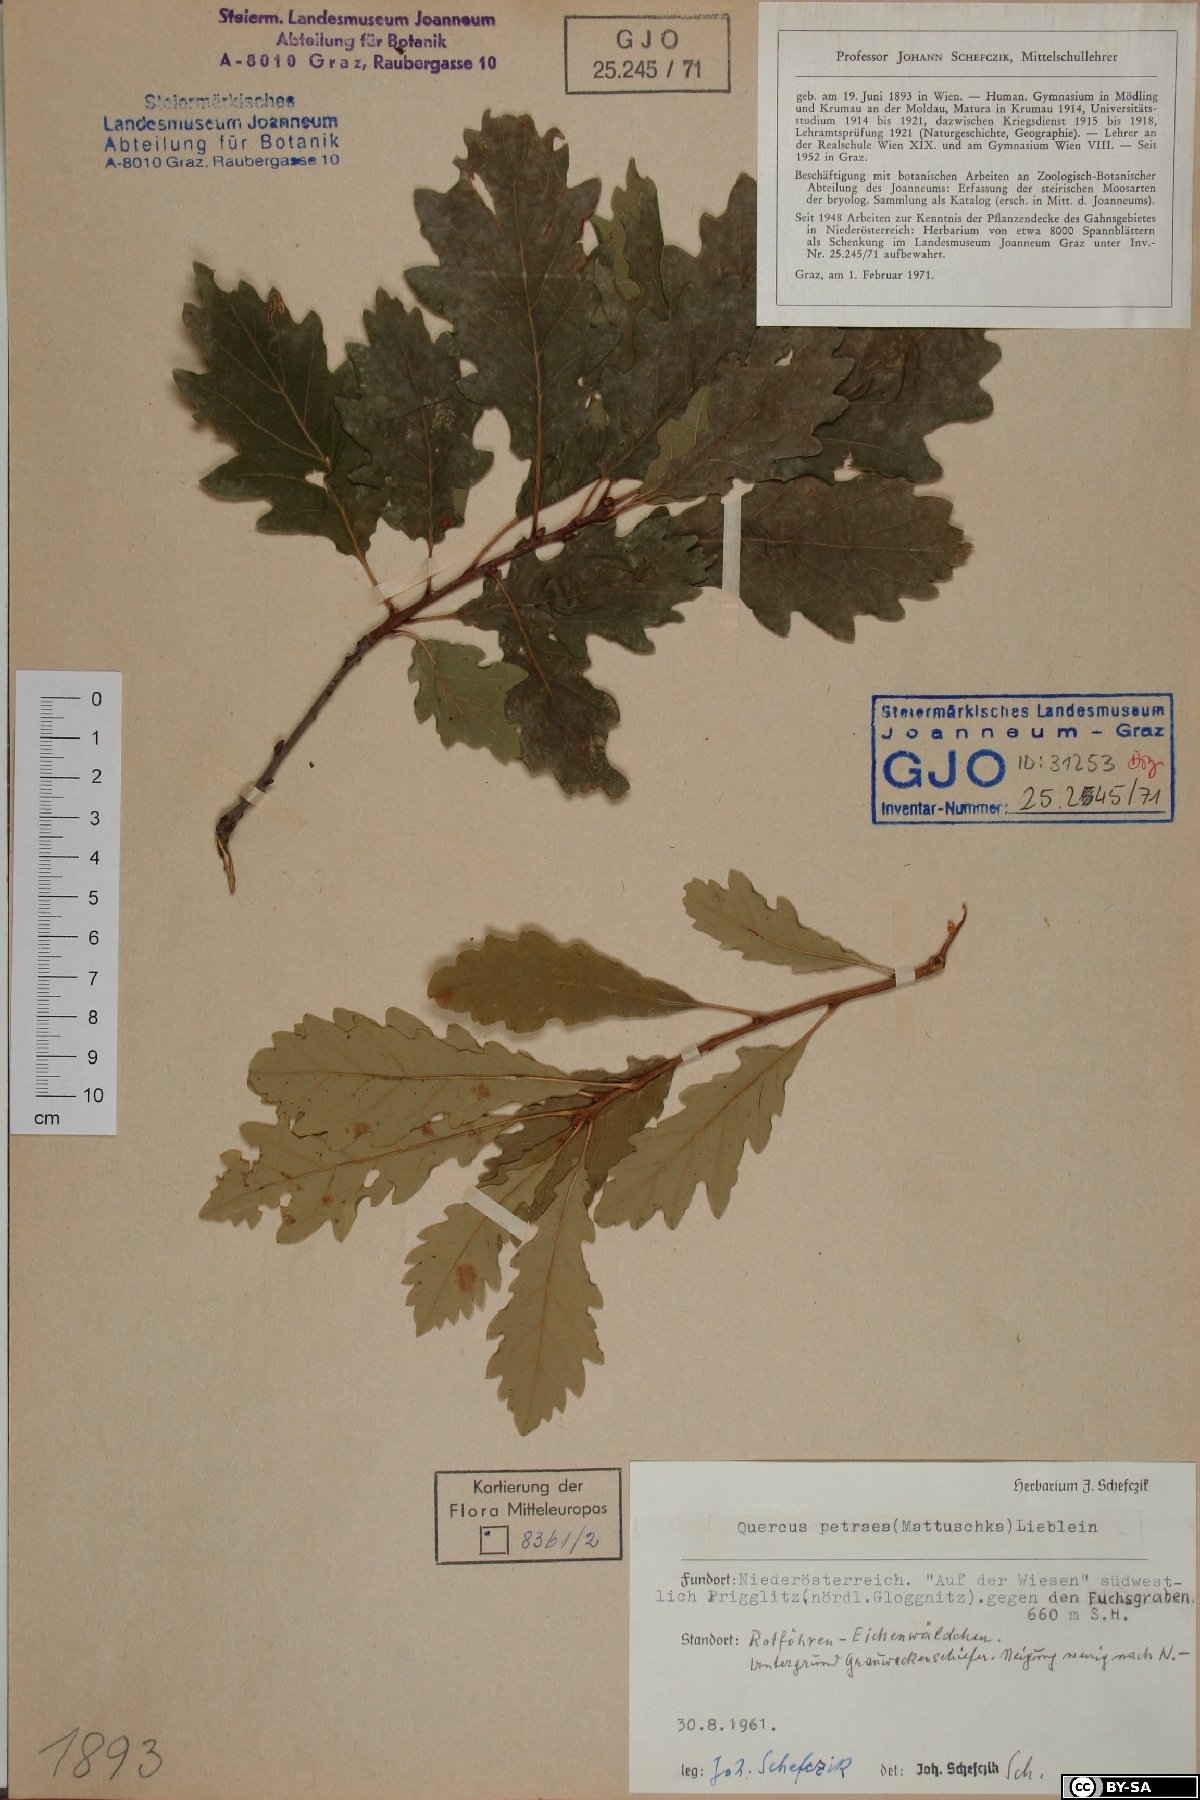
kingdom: Plantae
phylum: Tracheophyta
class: Magnoliopsida
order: Fagales
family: Fagaceae
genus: Quercus
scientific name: Quercus petraea
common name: Sessile oak
